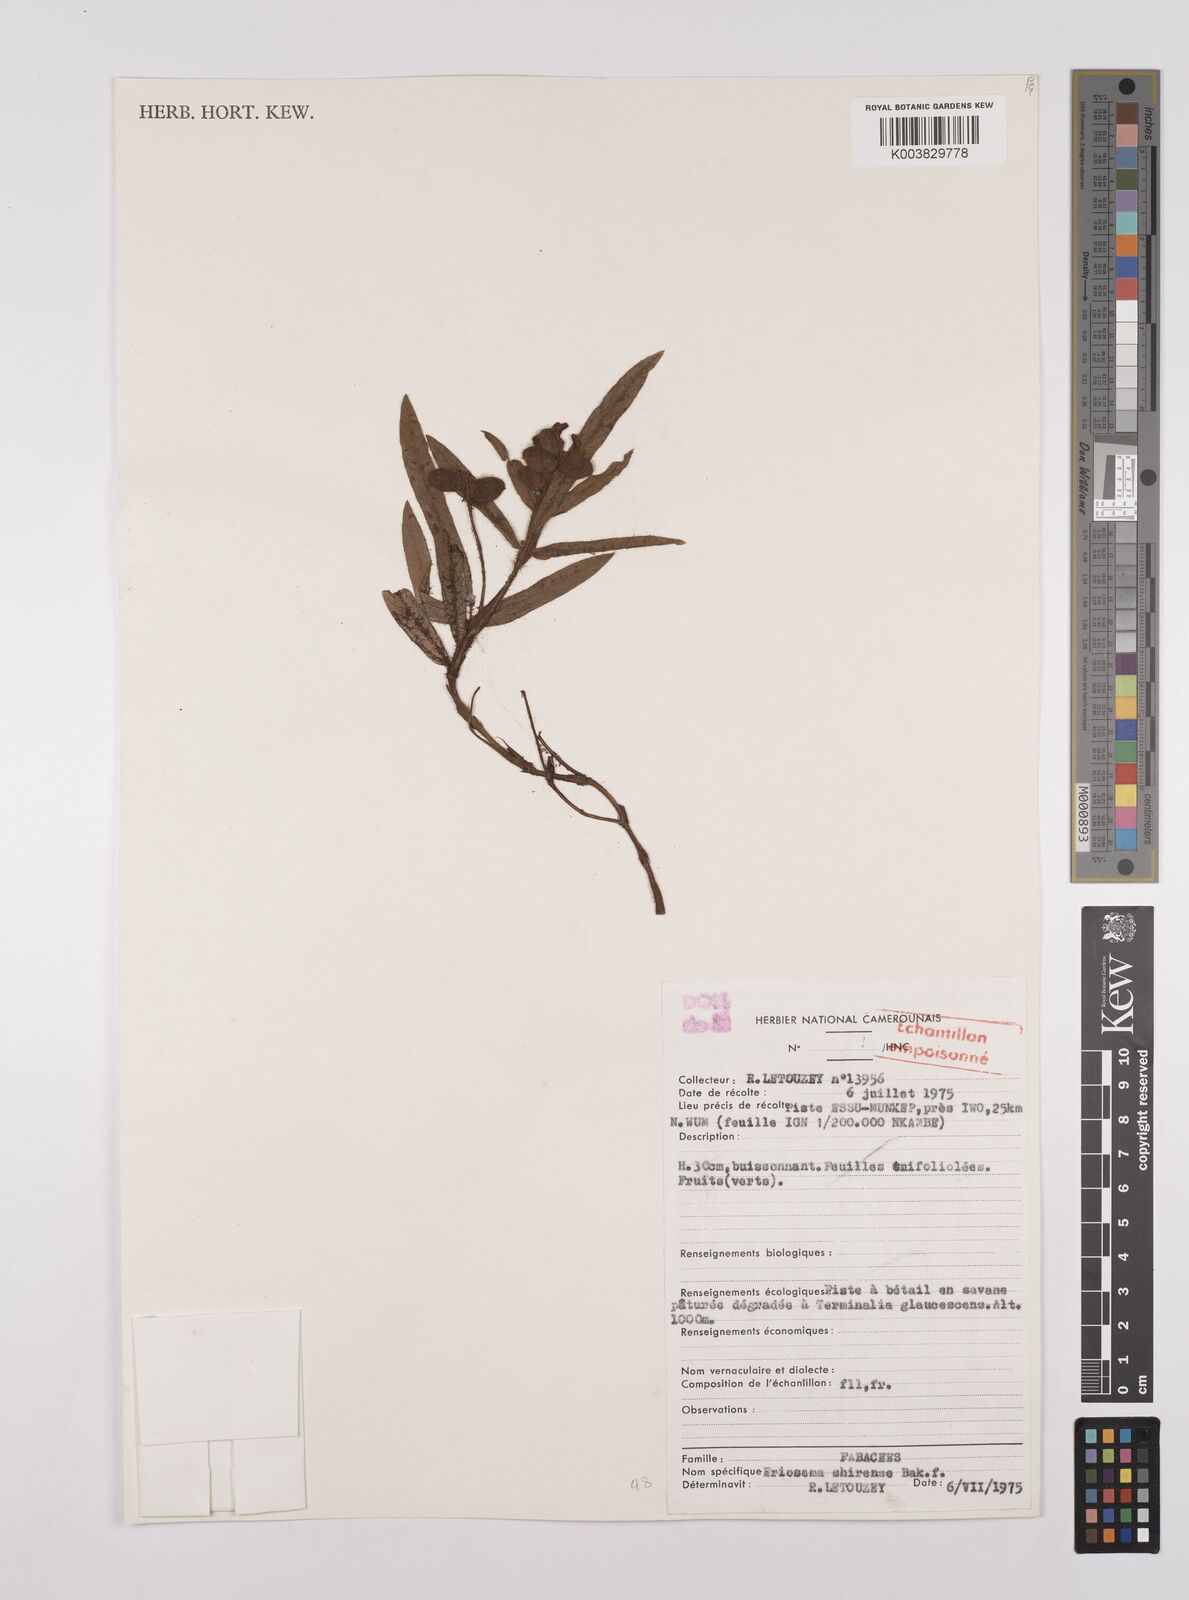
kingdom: Plantae
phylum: Tracheophyta
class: Magnoliopsida
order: Fabales
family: Fabaceae
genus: Eriosema
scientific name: Eriosema shirense
